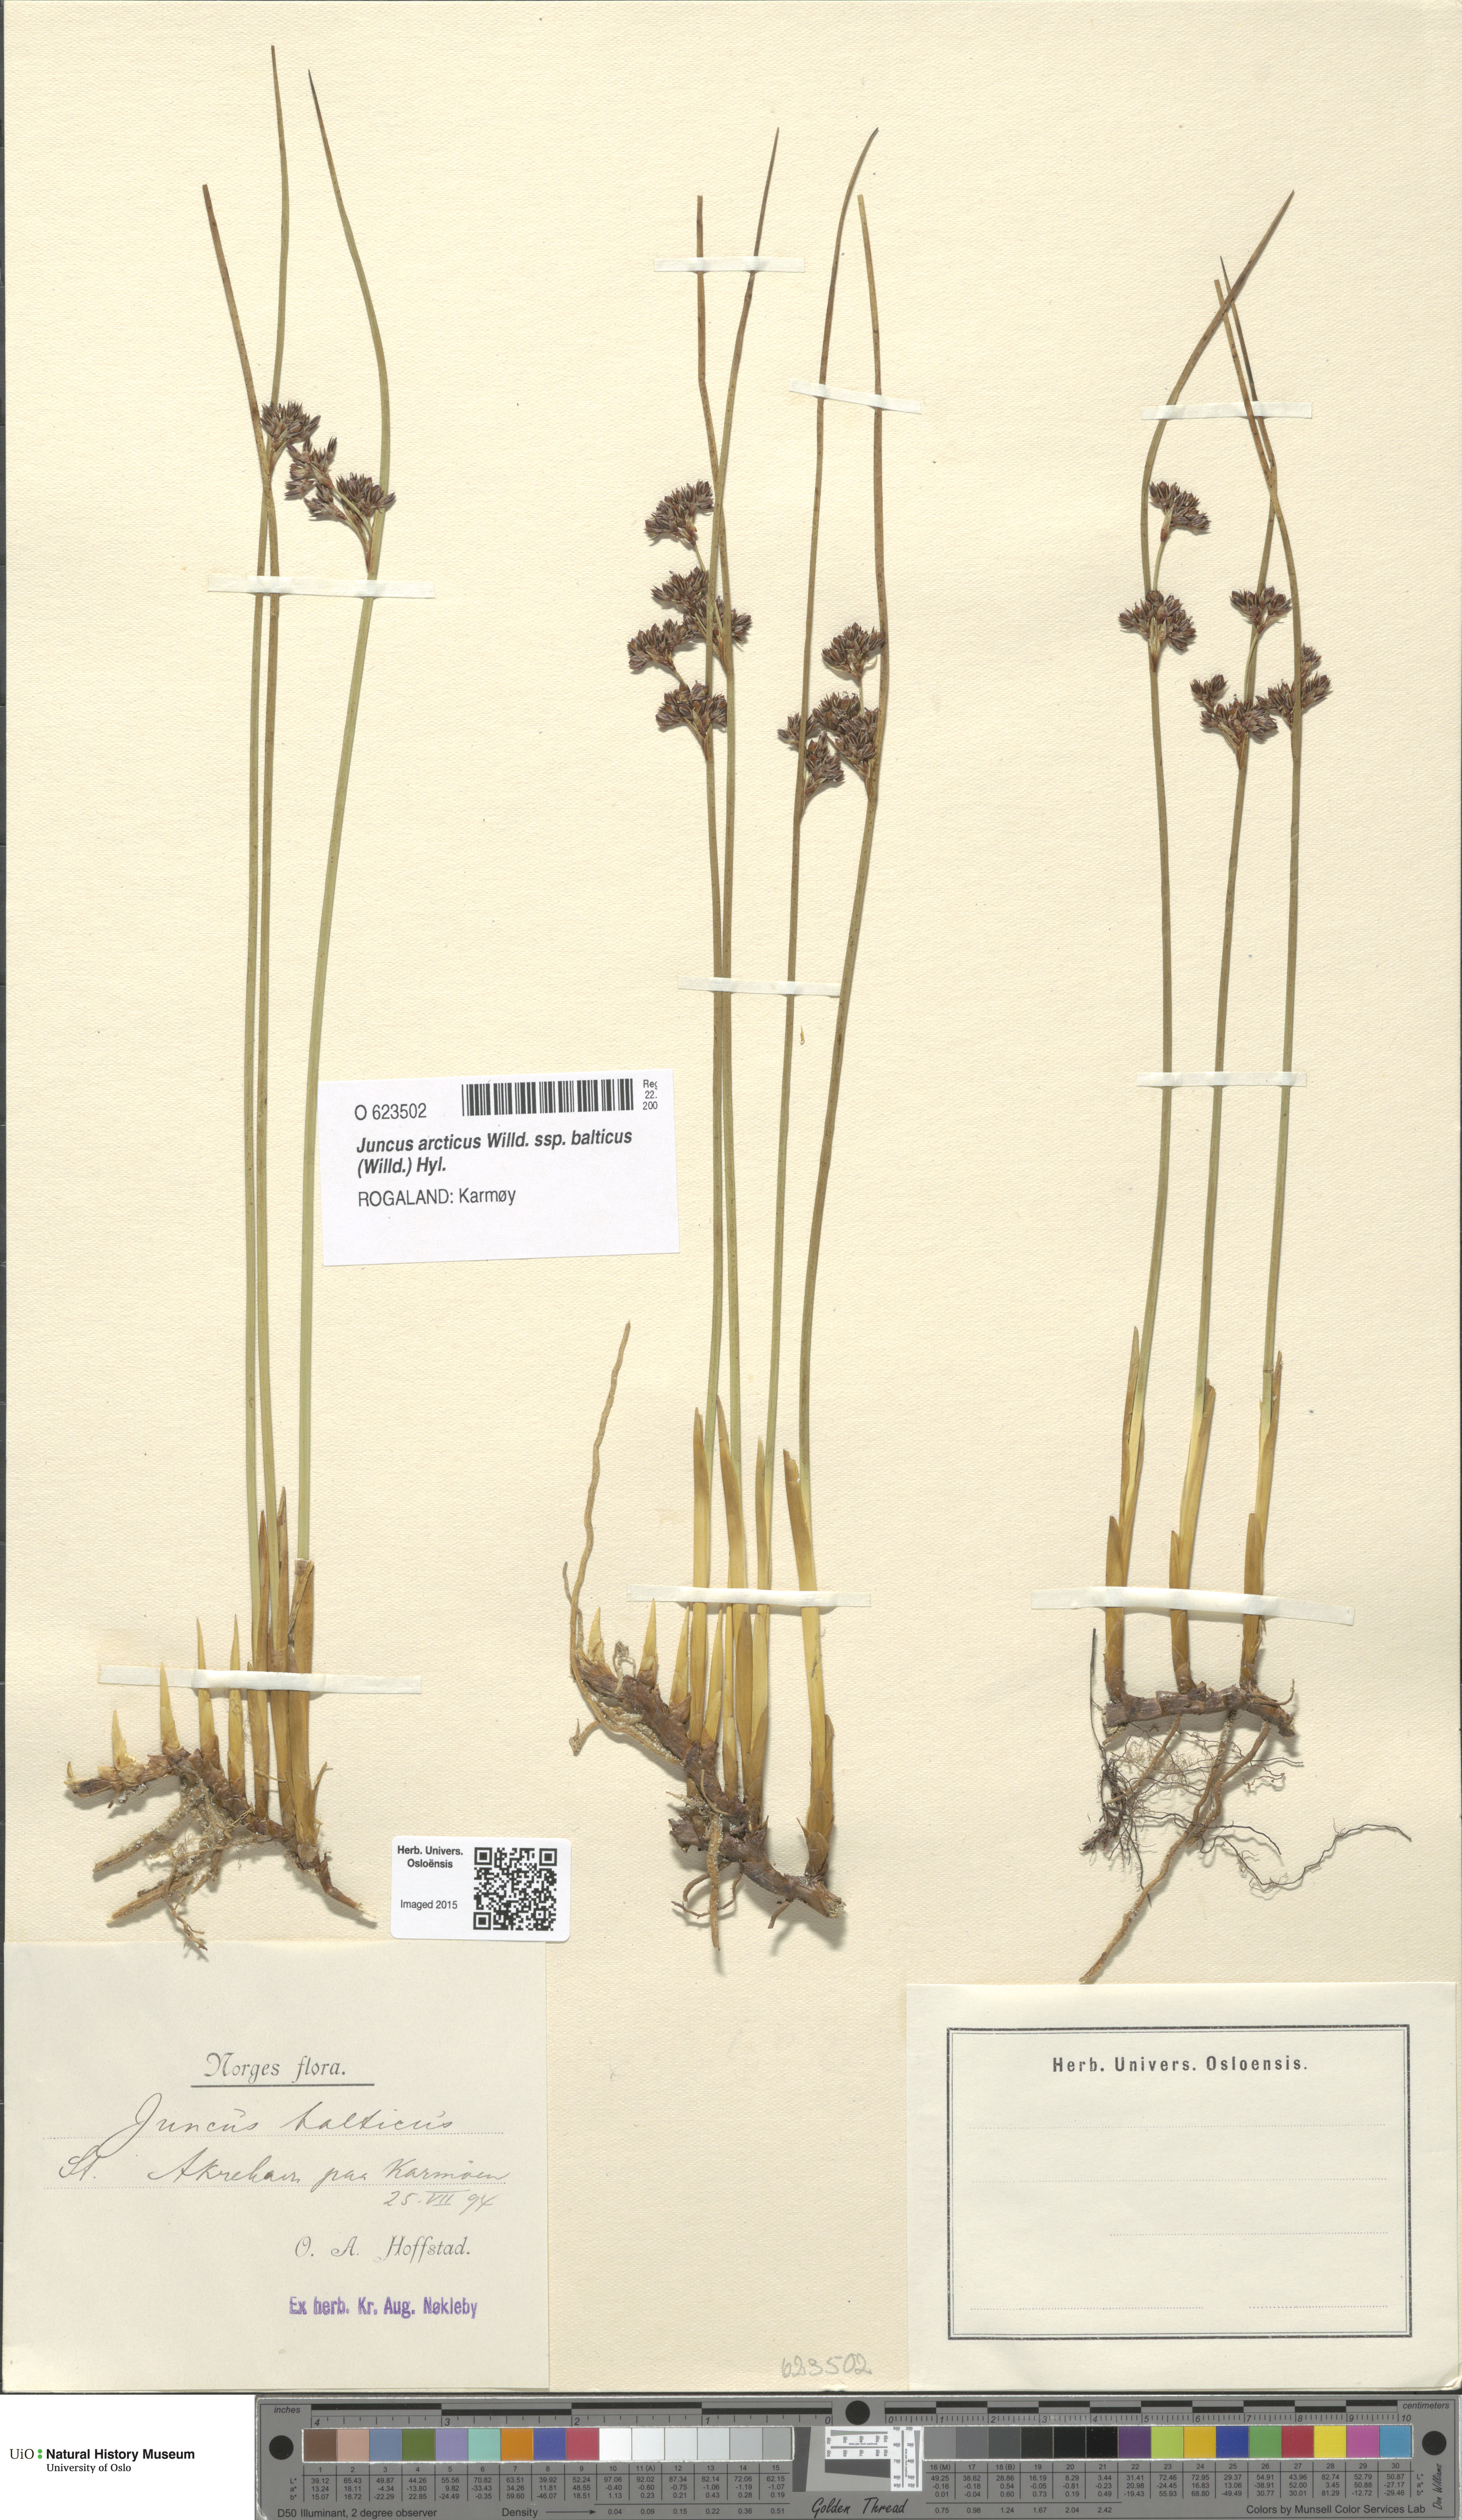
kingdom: Plantae
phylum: Tracheophyta
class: Liliopsida
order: Poales
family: Juncaceae
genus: Juncus
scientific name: Juncus balticus
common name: Baltic rush
